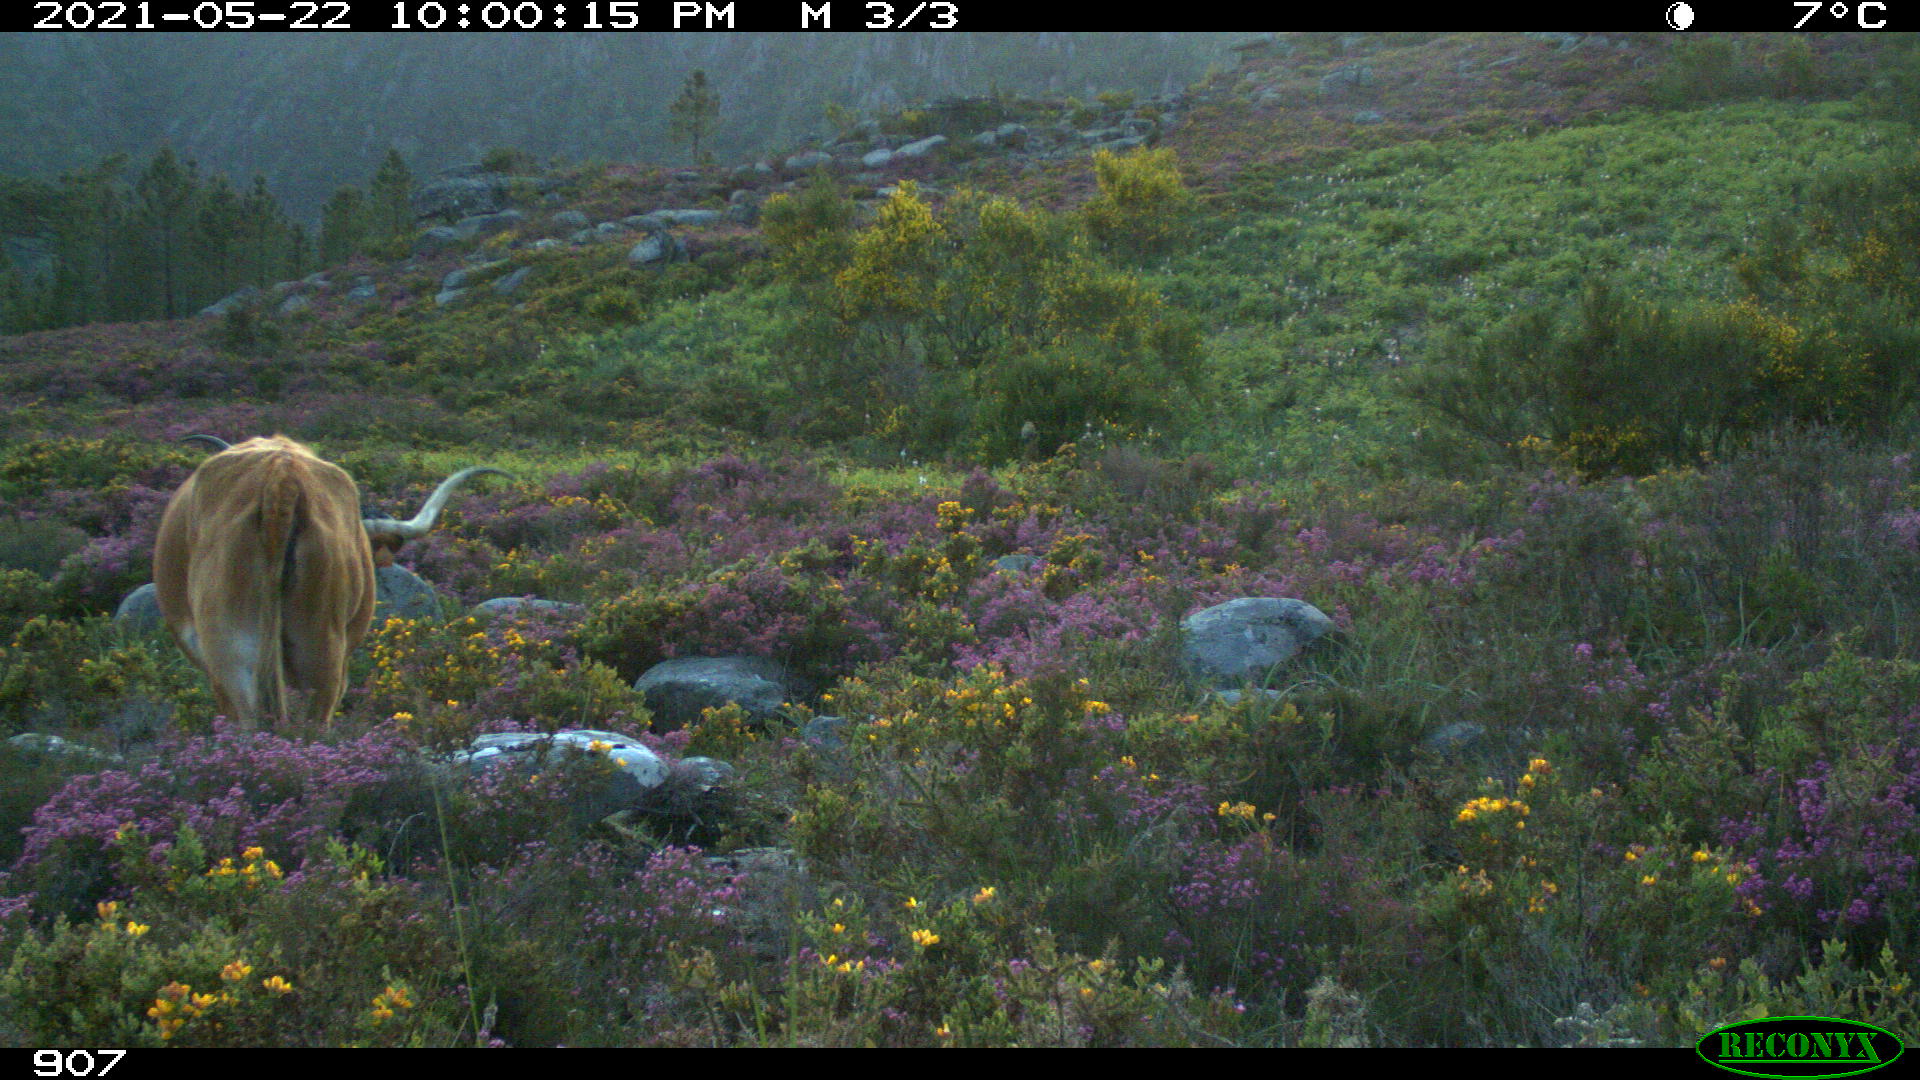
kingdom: Animalia
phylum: Chordata
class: Mammalia
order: Artiodactyla
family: Bovidae
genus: Bos
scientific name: Bos taurus
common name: Domesticated cattle
